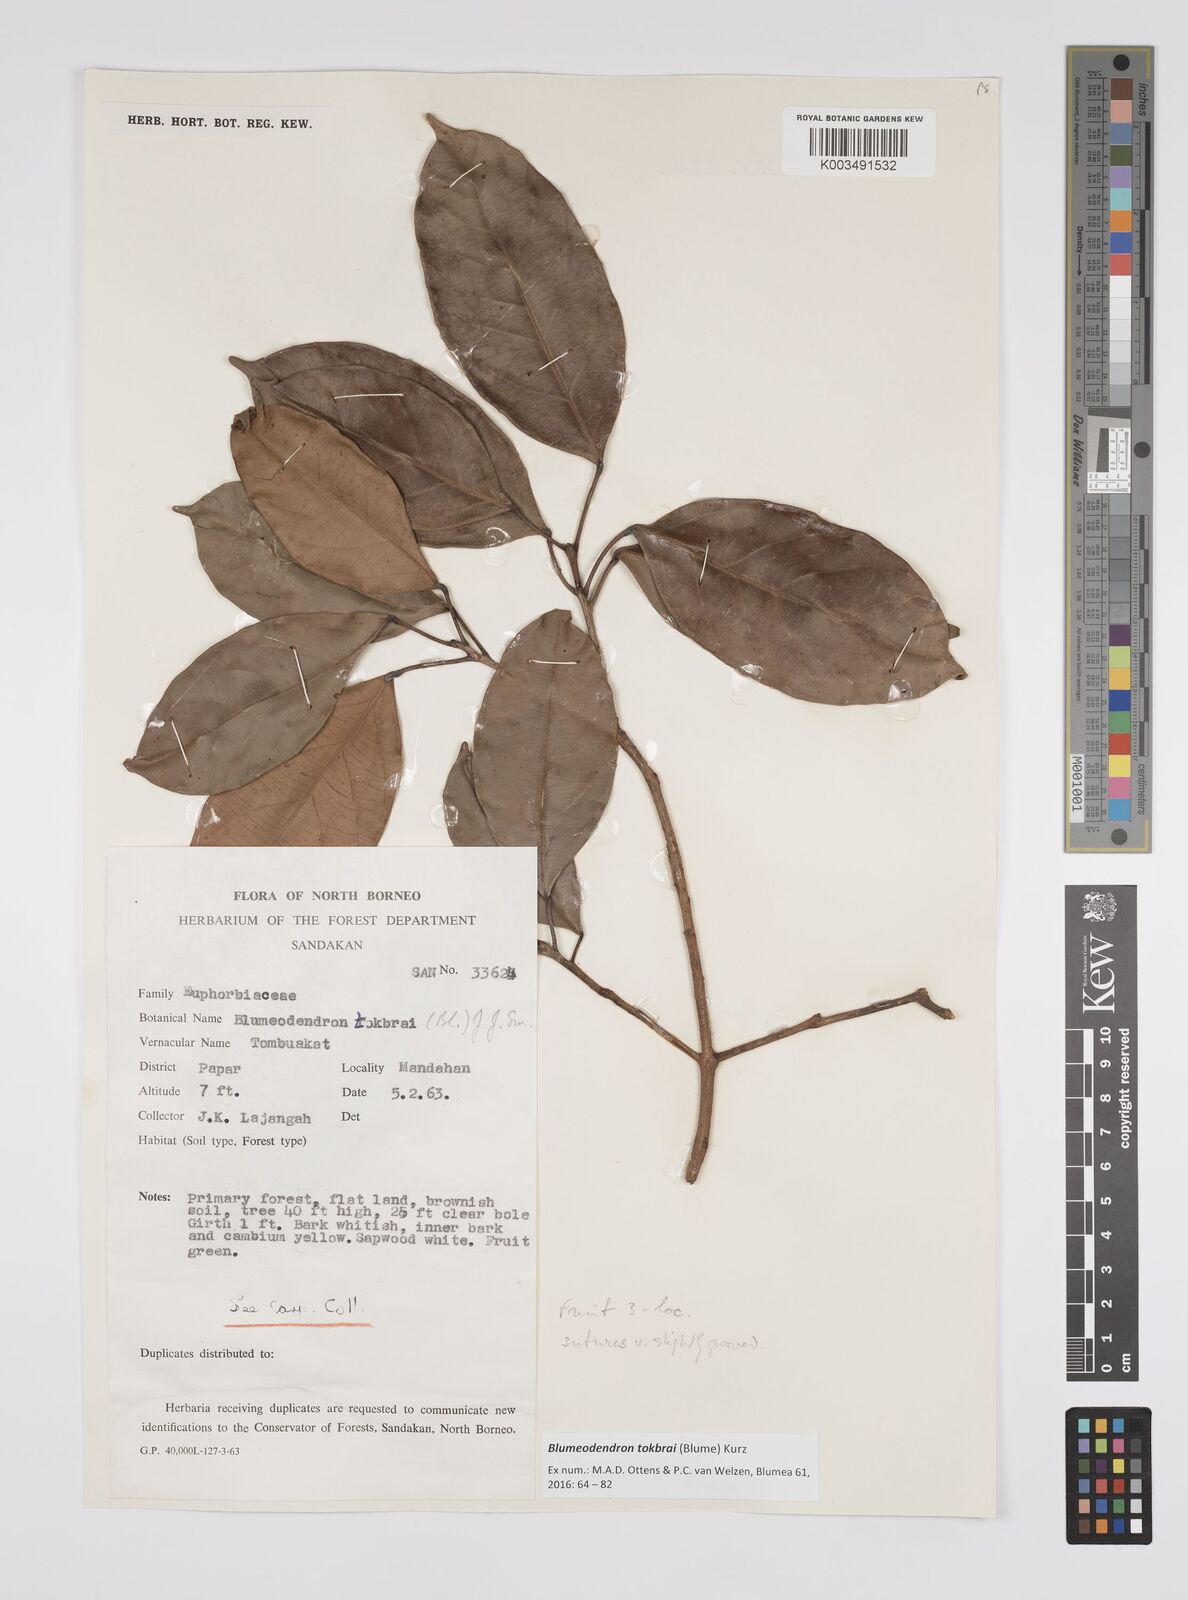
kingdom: Plantae
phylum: Tracheophyta
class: Magnoliopsida
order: Malpighiales
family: Euphorbiaceae
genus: Blumeodendron
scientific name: Blumeodendron tokbrai
